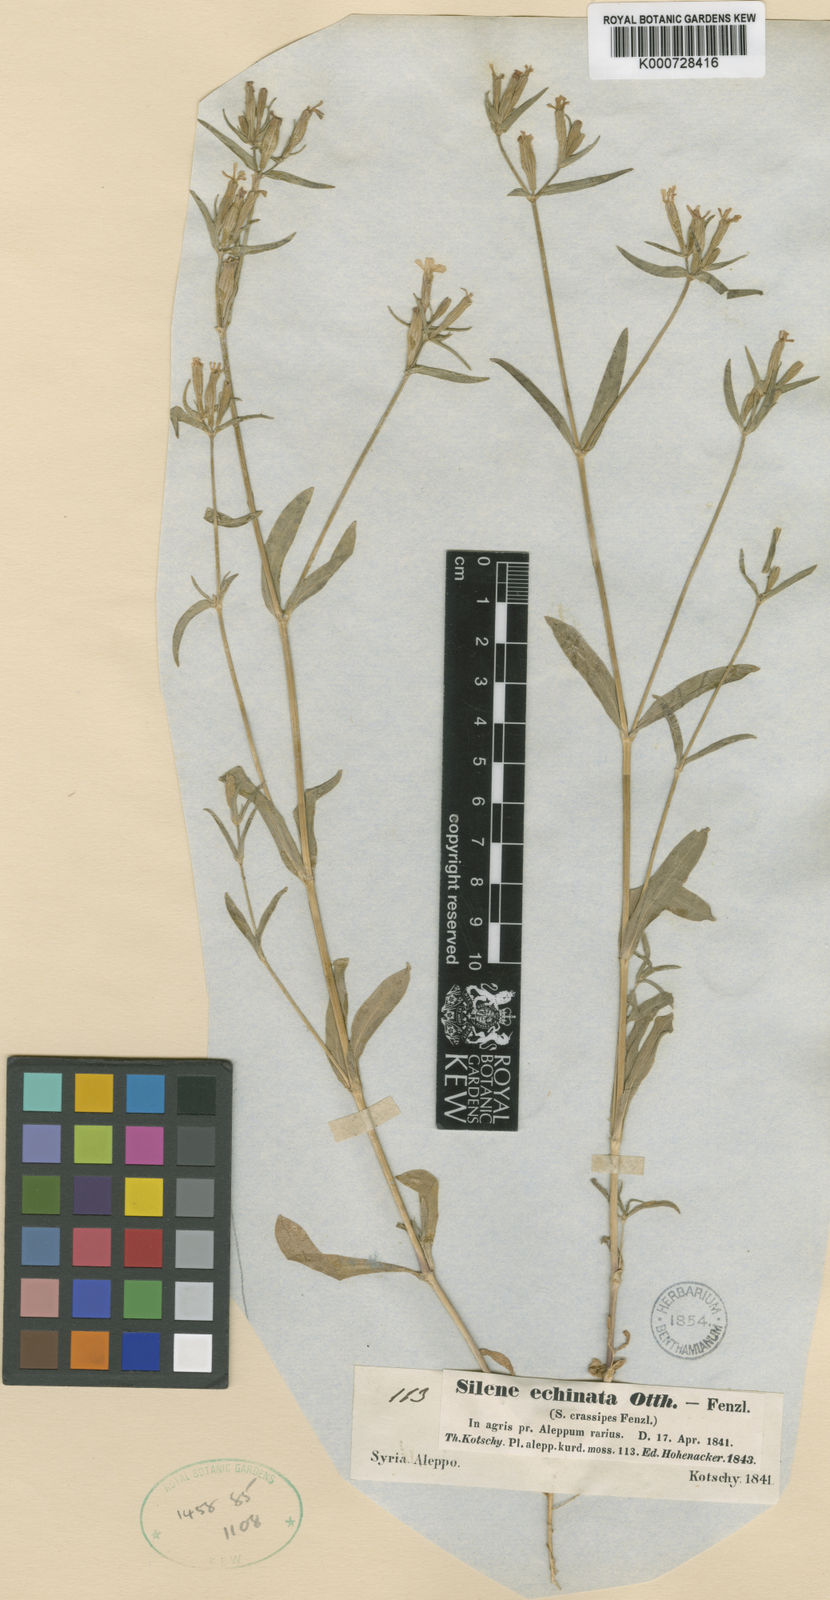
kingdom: Plantae
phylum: Tracheophyta
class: Magnoliopsida
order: Caryophyllales
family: Caryophyllaceae
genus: Silene
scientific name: Silene crassipes
